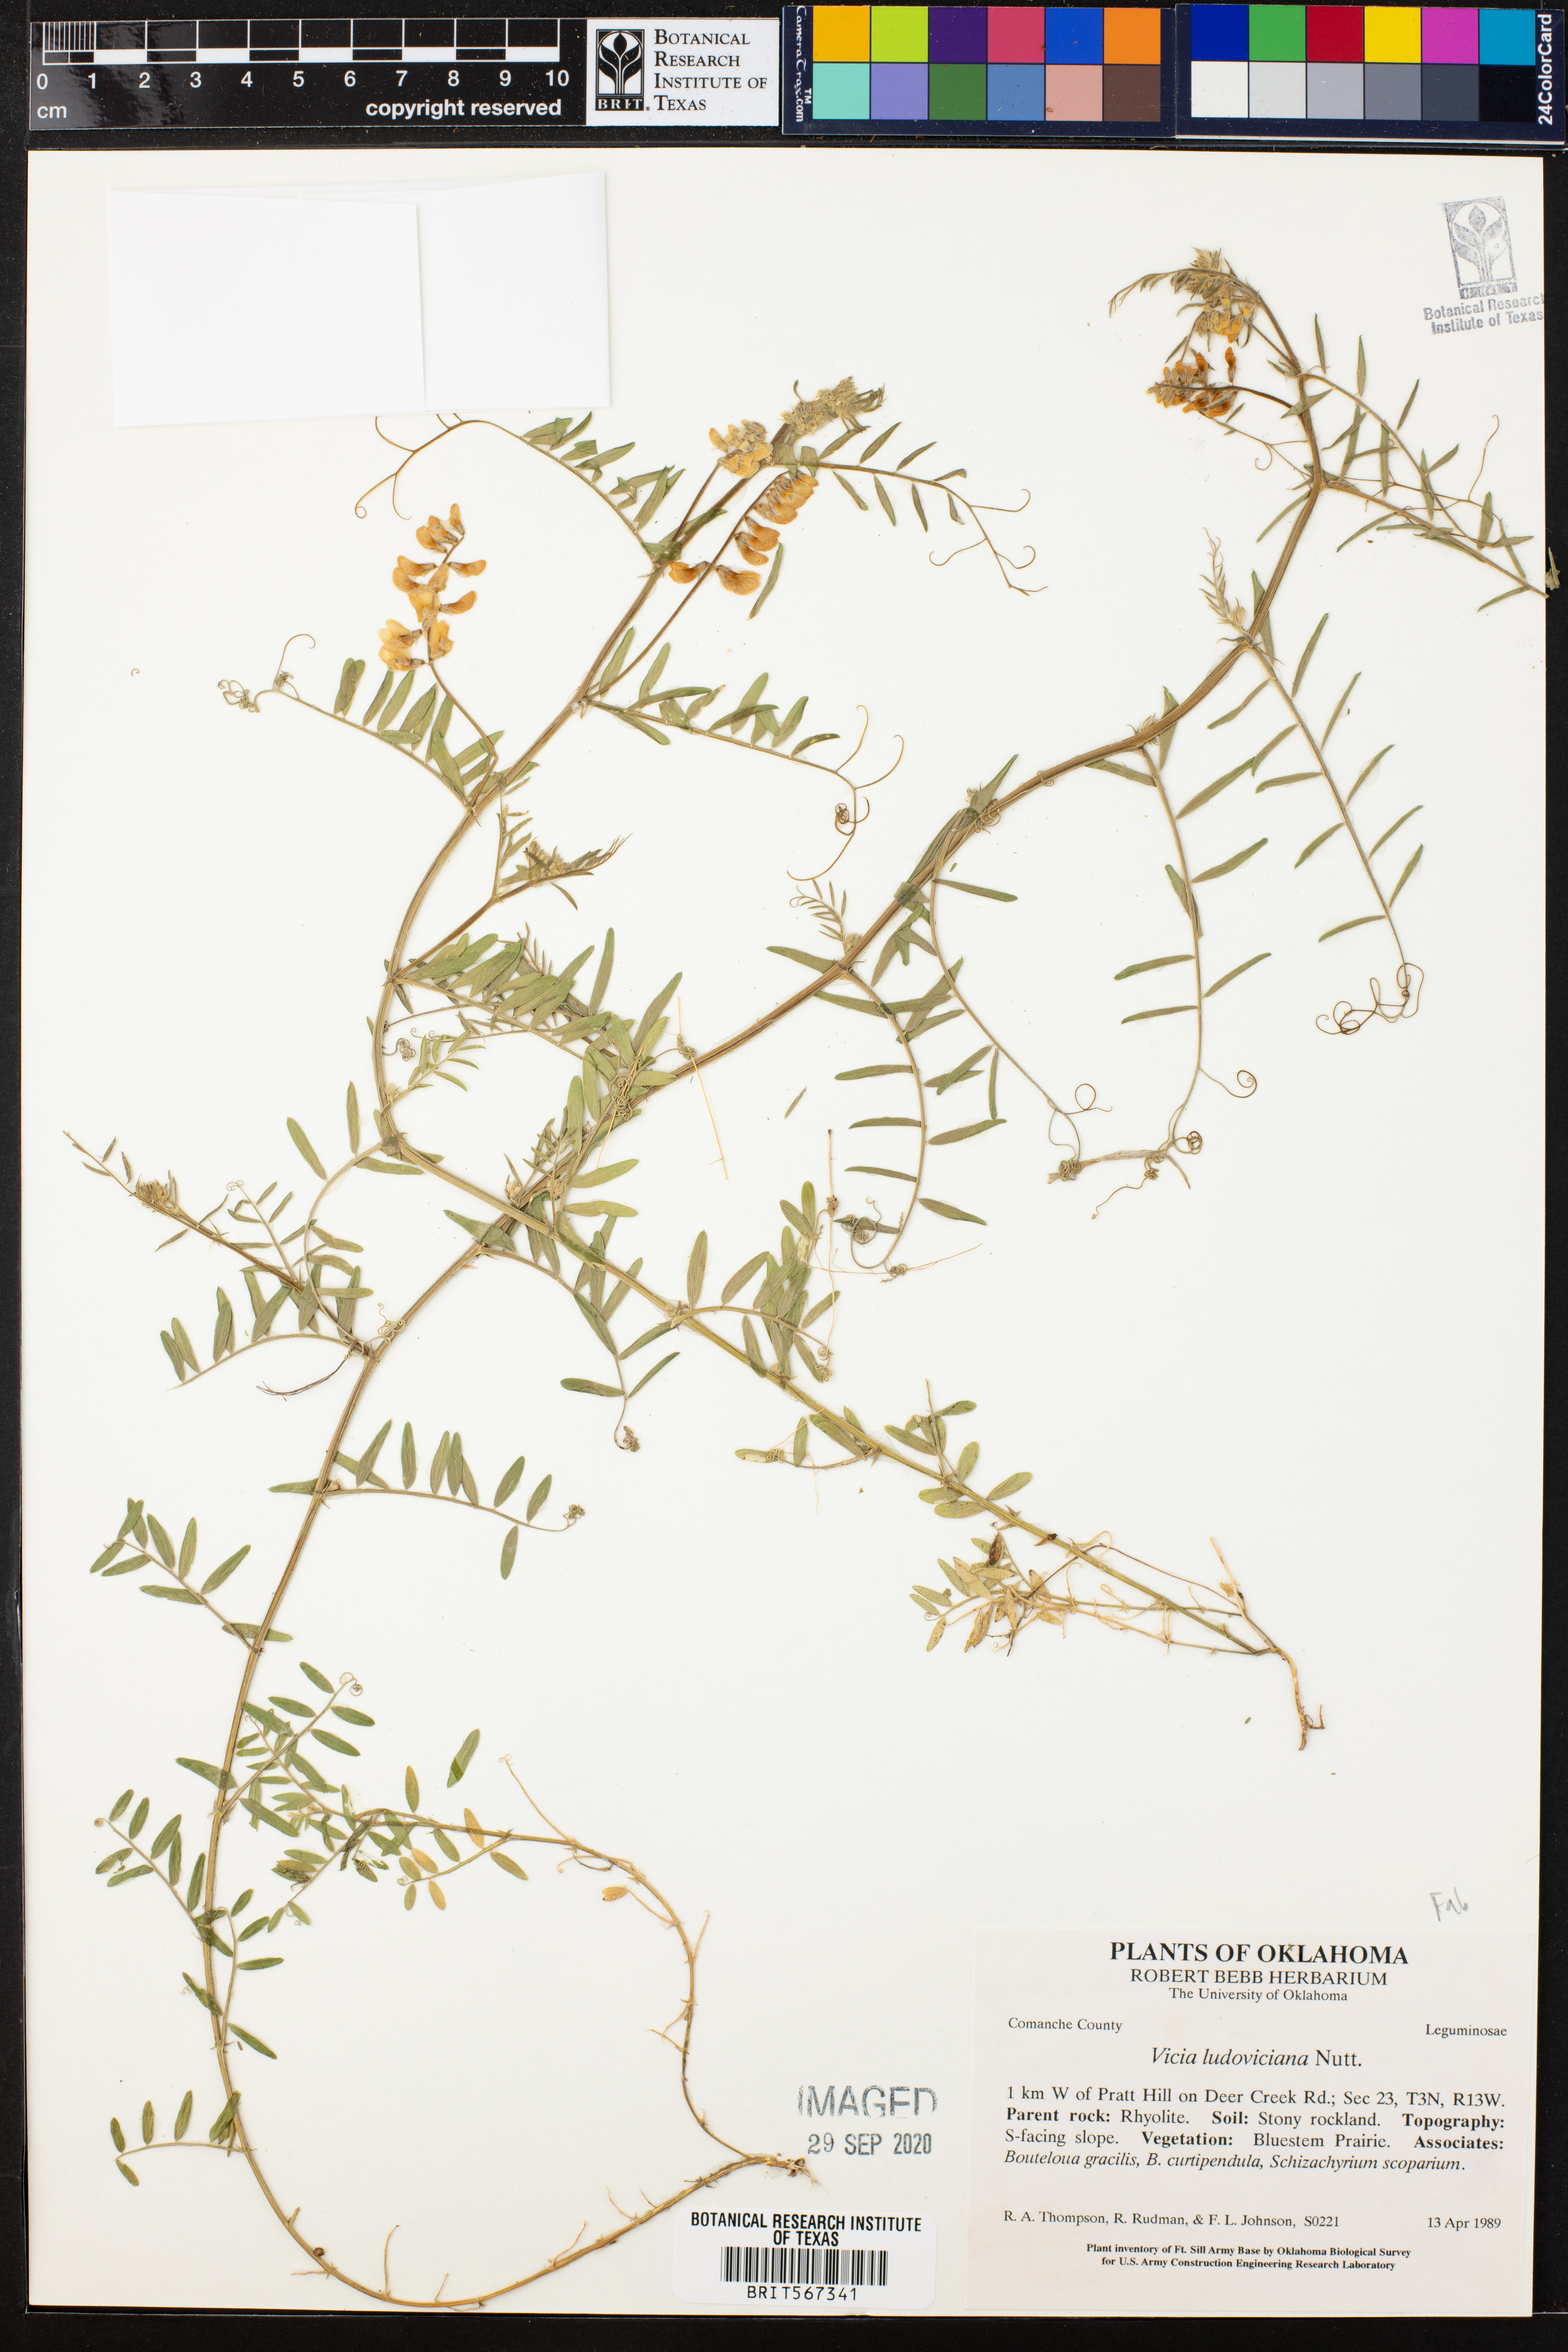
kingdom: Plantae
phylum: Tracheophyta
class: Magnoliopsida
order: Fabales
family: Fabaceae
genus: Vicia
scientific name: Vicia ludoviciana
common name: Louisiana vetch
